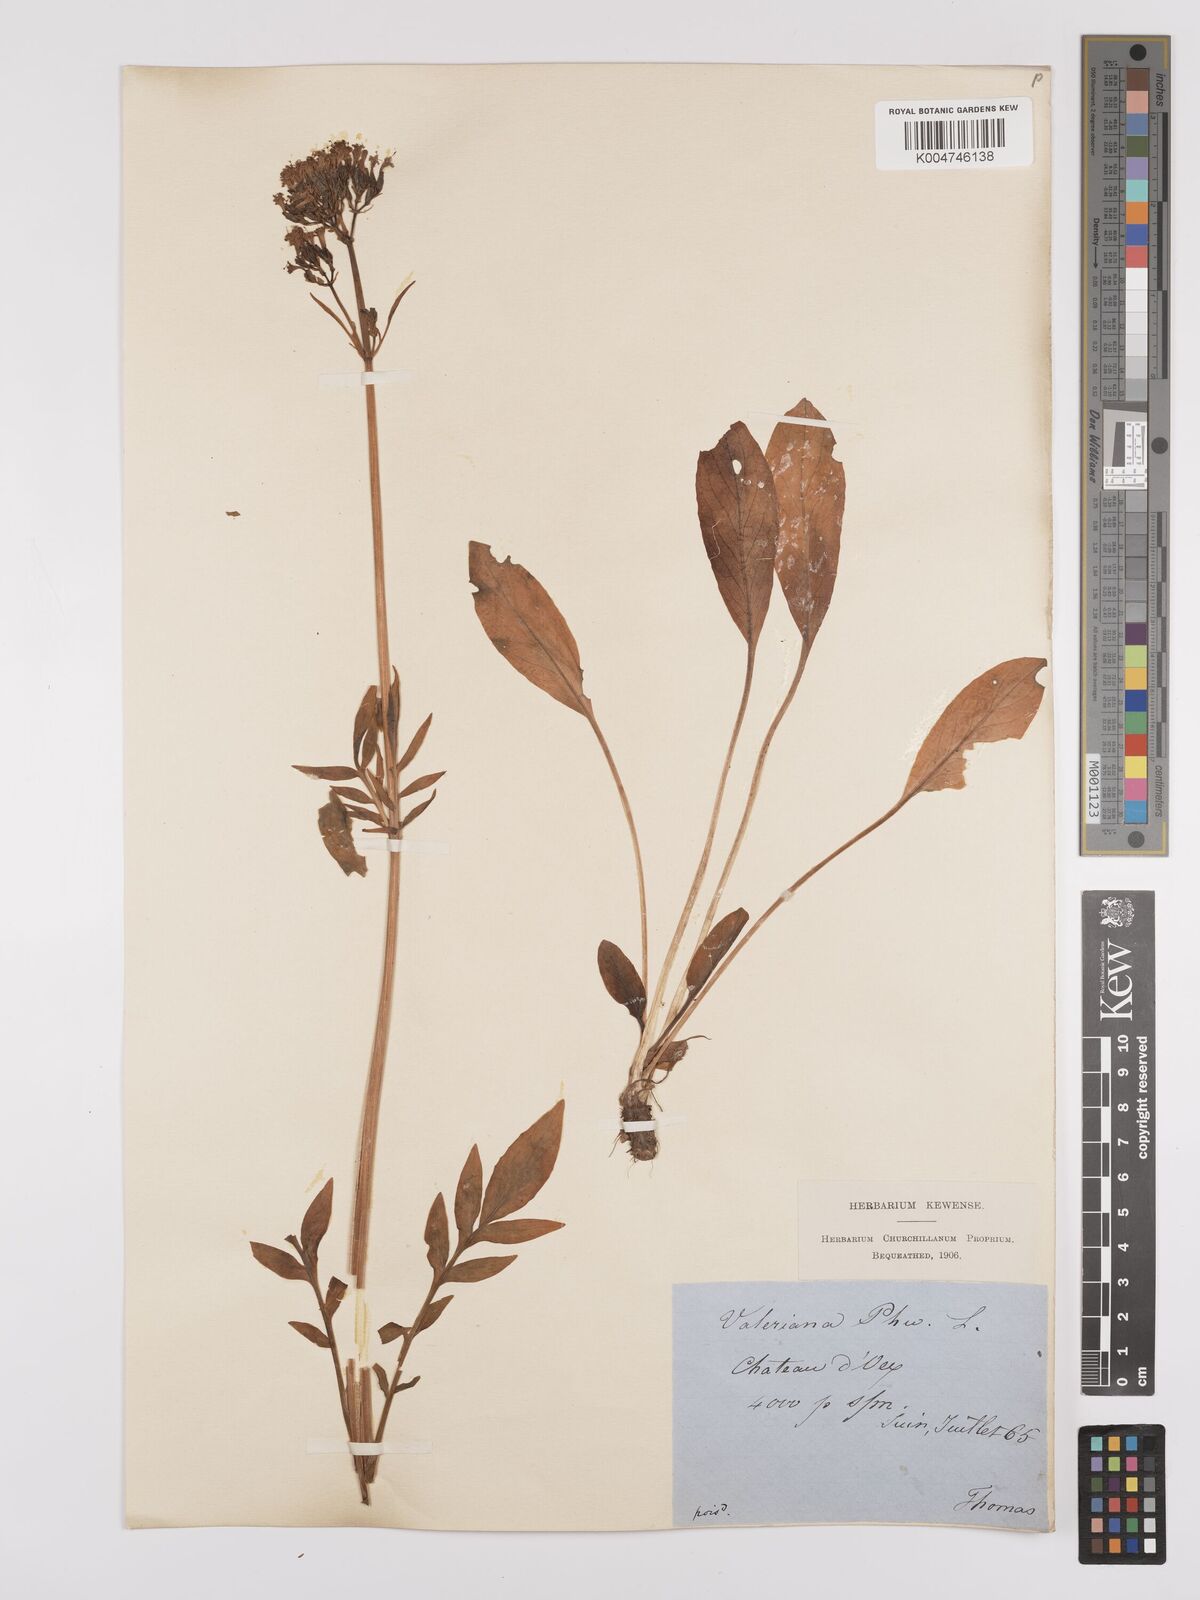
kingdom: Plantae
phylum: Tracheophyta
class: Magnoliopsida
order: Dipsacales
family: Caprifoliaceae
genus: Valeriana
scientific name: Valeriana phu
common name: Turkey valerian
